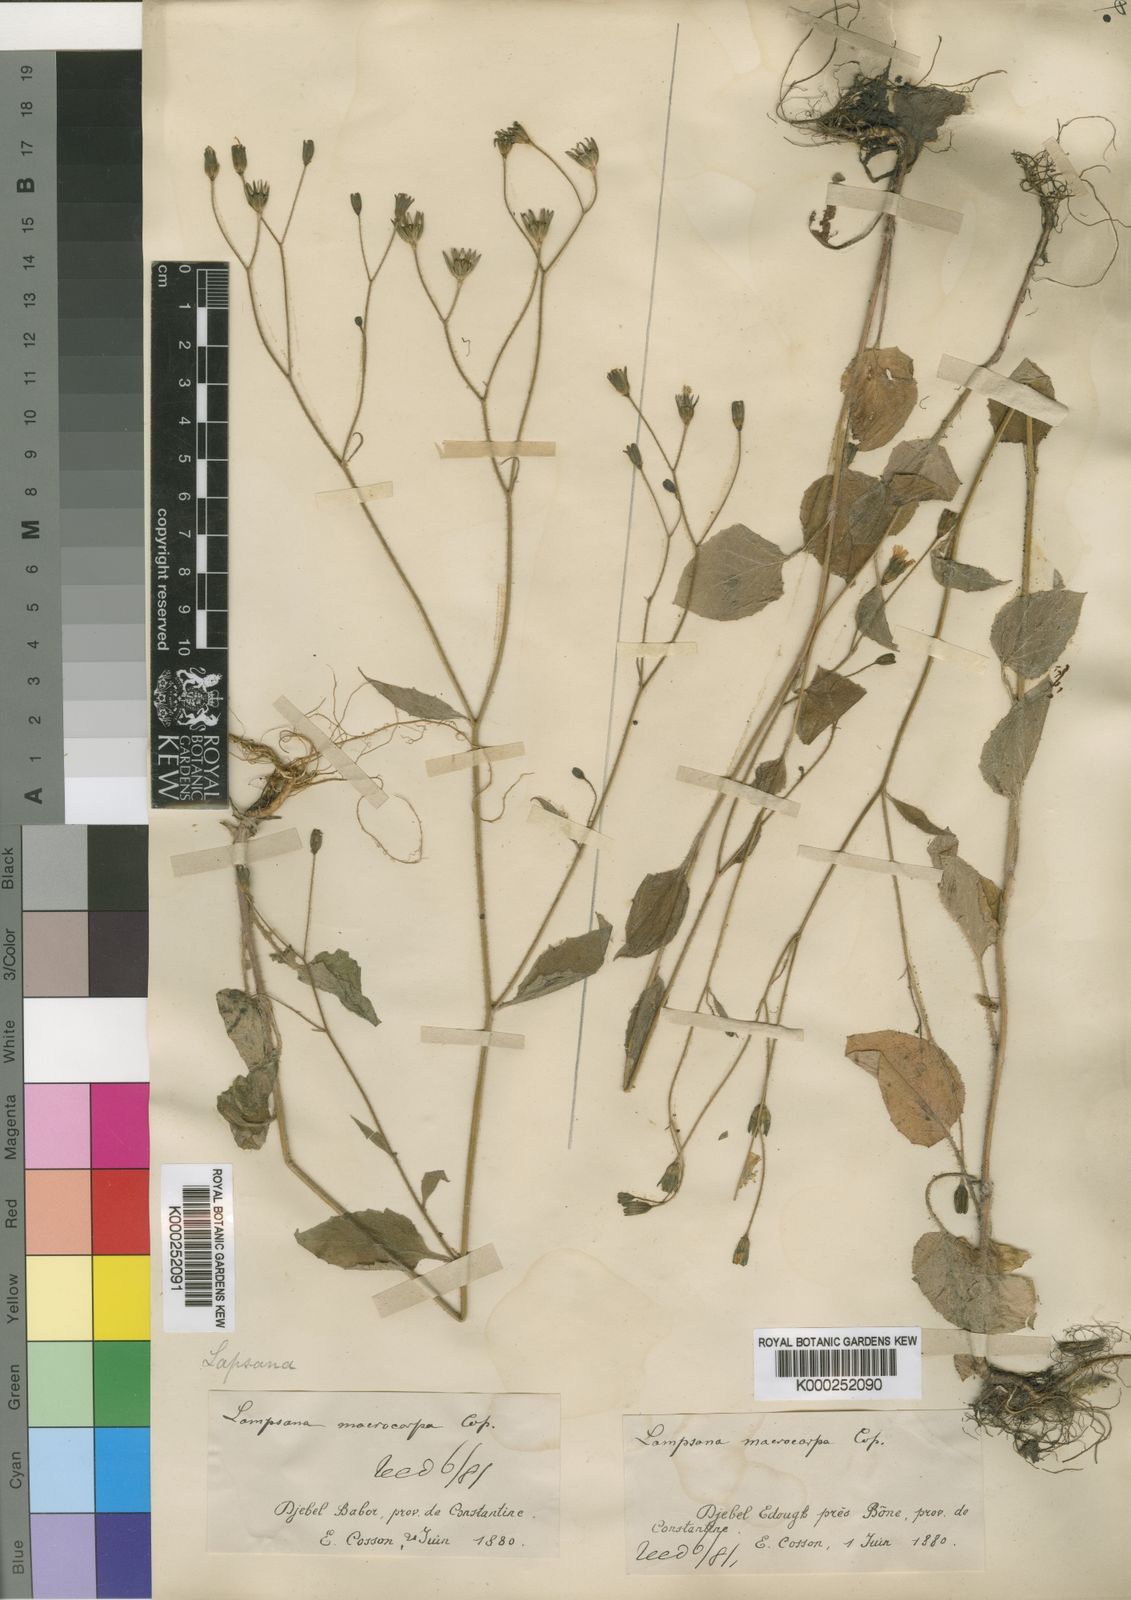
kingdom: Plantae
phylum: Tracheophyta
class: Magnoliopsida
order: Asterales
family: Asteraceae
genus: Lapsana
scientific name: Lapsana communis
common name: Nipplewort
